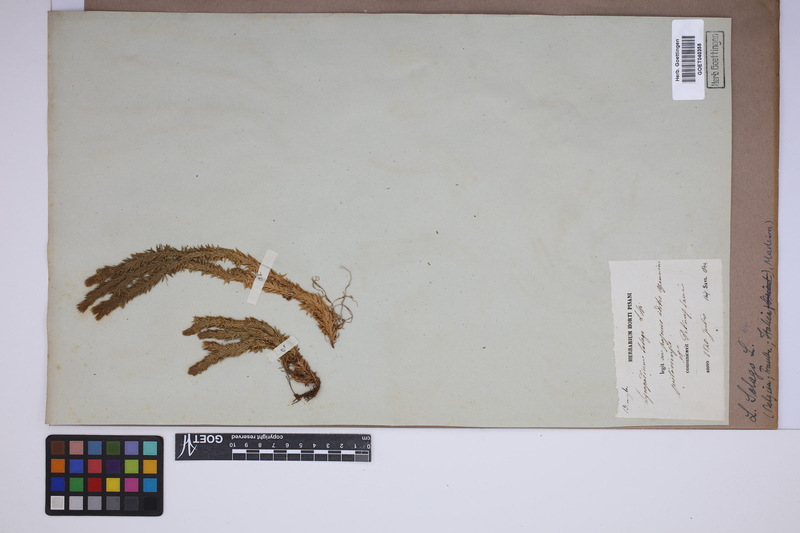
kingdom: Plantae
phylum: Tracheophyta
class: Lycopodiopsida
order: Lycopodiales
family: Lycopodiaceae
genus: Huperzia
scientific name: Huperzia selago
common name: Northern firmoss
